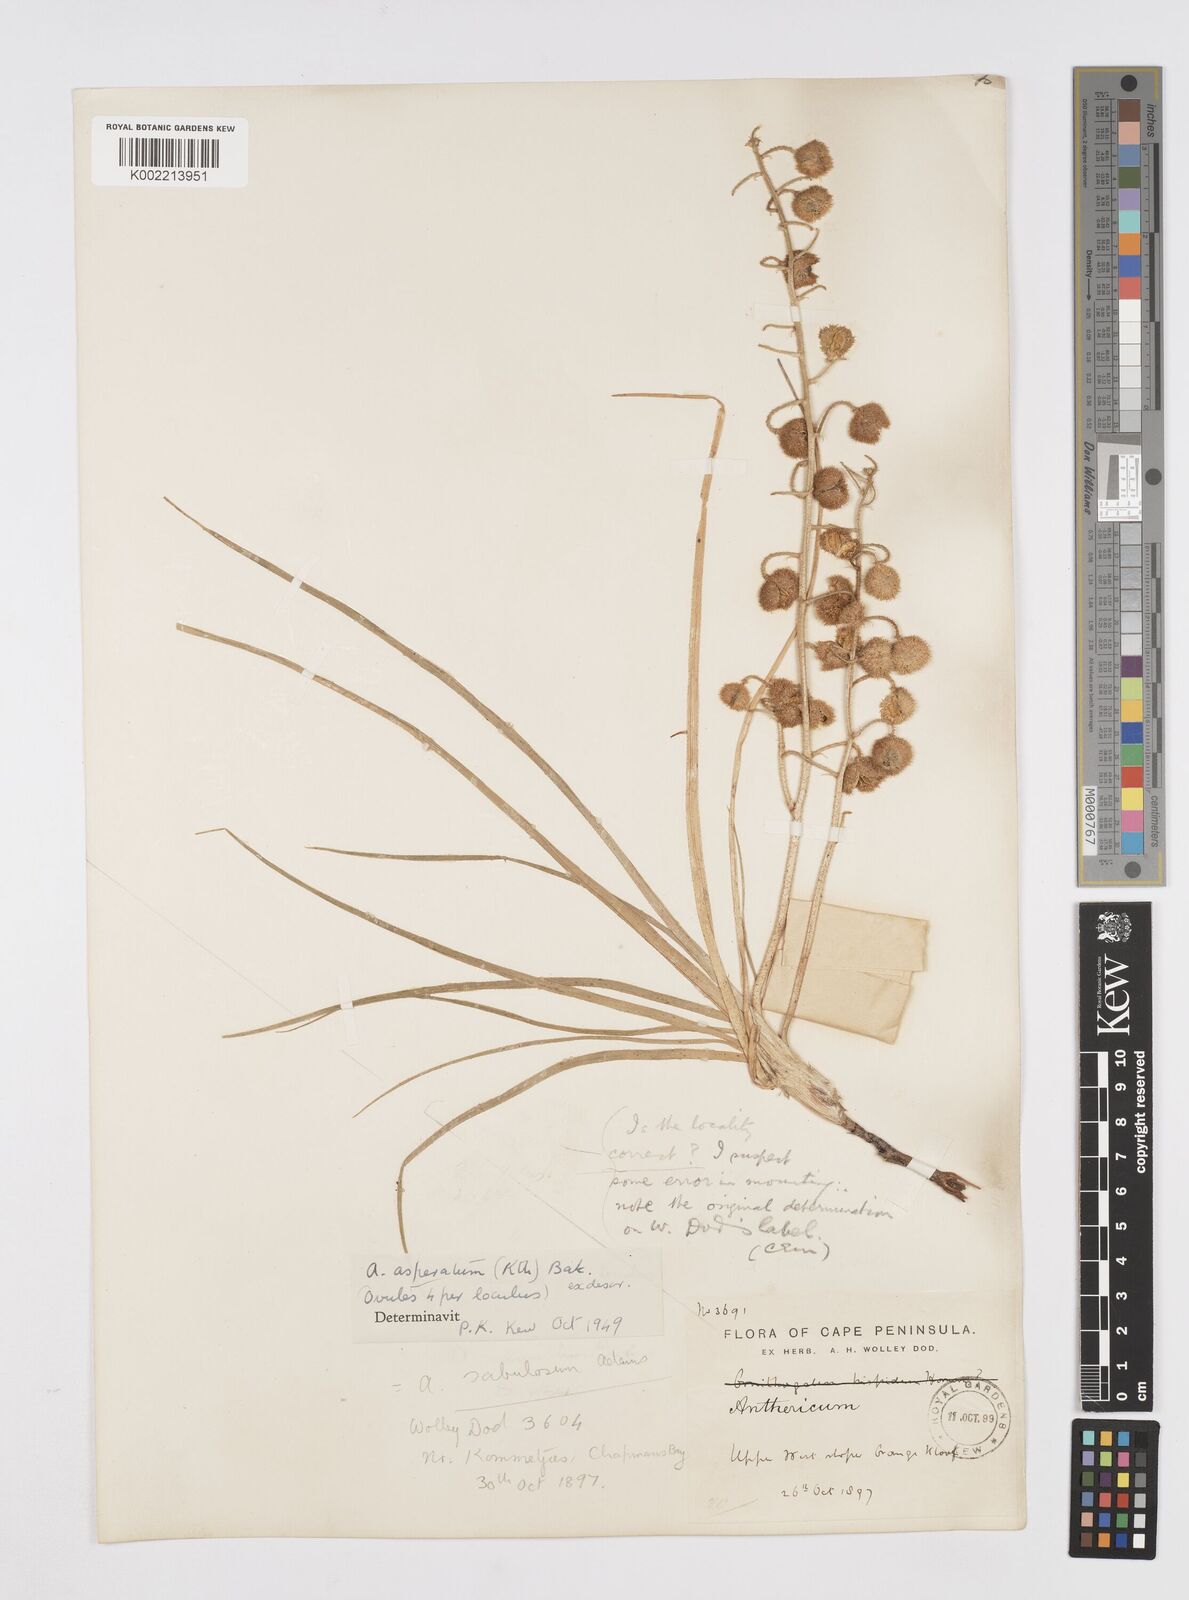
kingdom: Plantae
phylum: Tracheophyta
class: Liliopsida
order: Asparagales
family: Asphodelaceae
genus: Trachyandra
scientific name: Trachyandra asperata
